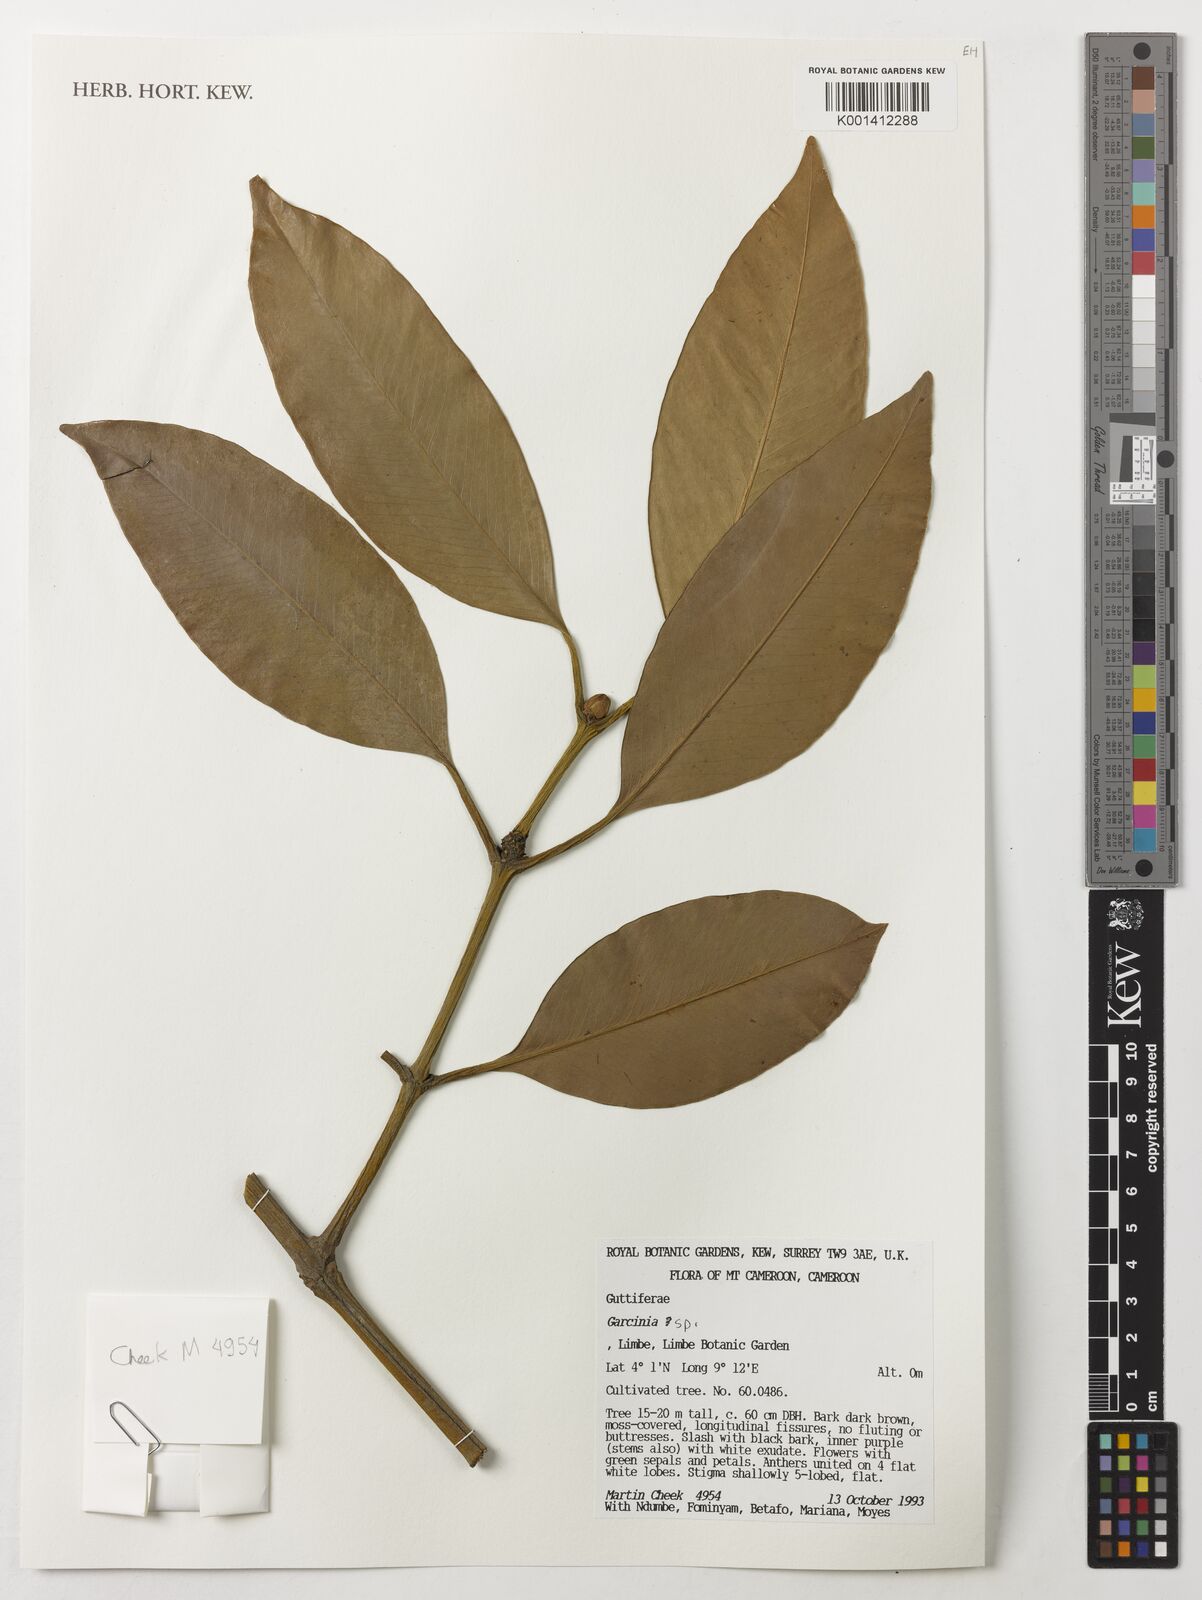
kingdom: Plantae
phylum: Tracheophyta
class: Magnoliopsida
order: Malpighiales
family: Clusiaceae
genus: Garcinia
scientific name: Garcinia
